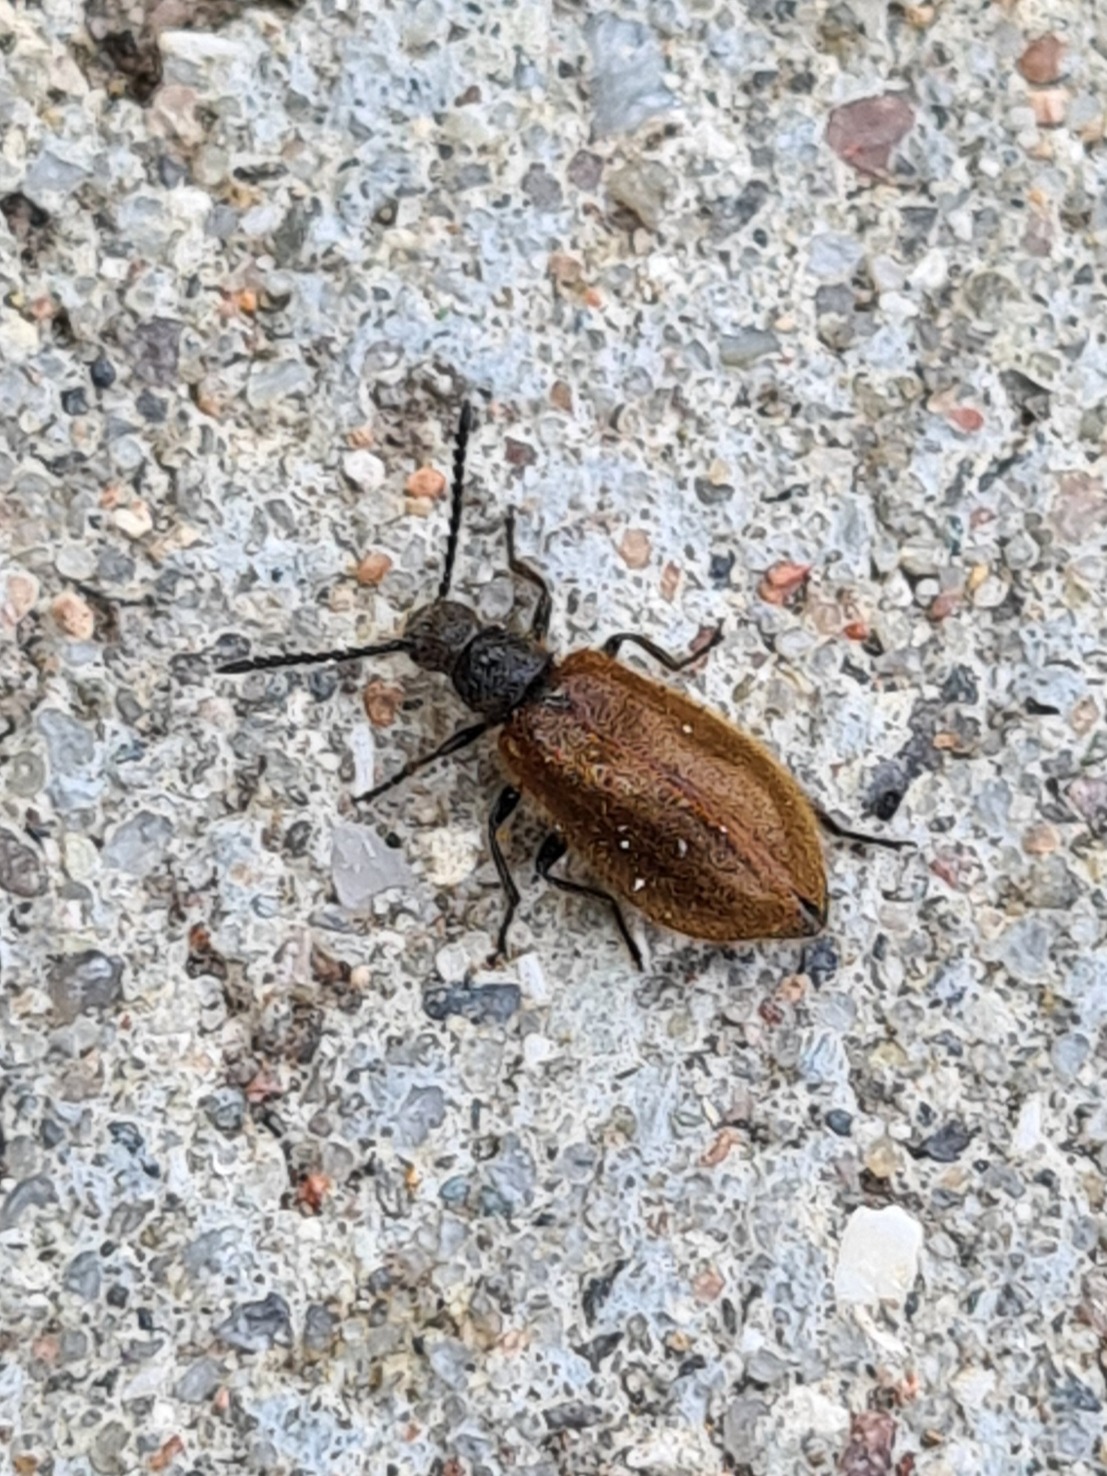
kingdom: Animalia
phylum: Arthropoda
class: Insecta
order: Coleoptera
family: Tenebrionidae
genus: Lagria
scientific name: Lagria hirta
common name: Håret skyggebille
